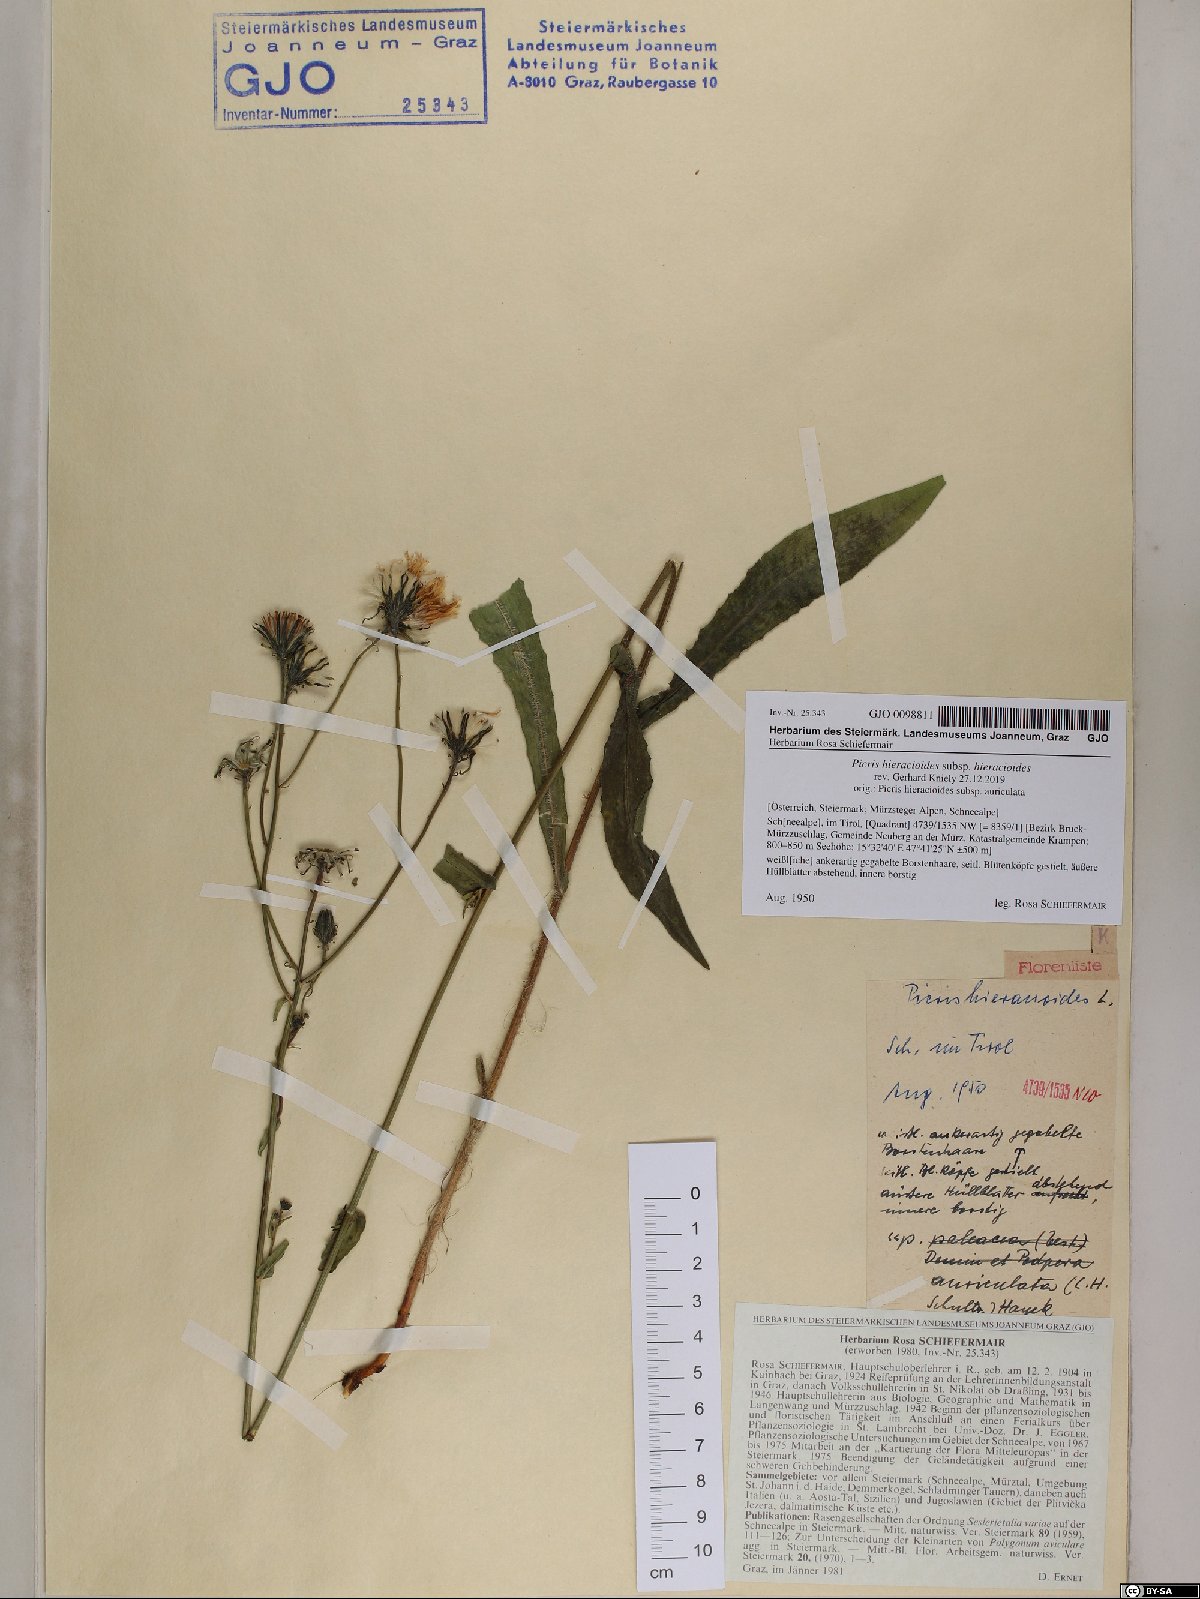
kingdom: Plantae
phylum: Tracheophyta
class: Magnoliopsida
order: Asterales
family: Asteraceae
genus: Picris
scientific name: Picris hieracioides
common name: Hawkweed oxtongue
